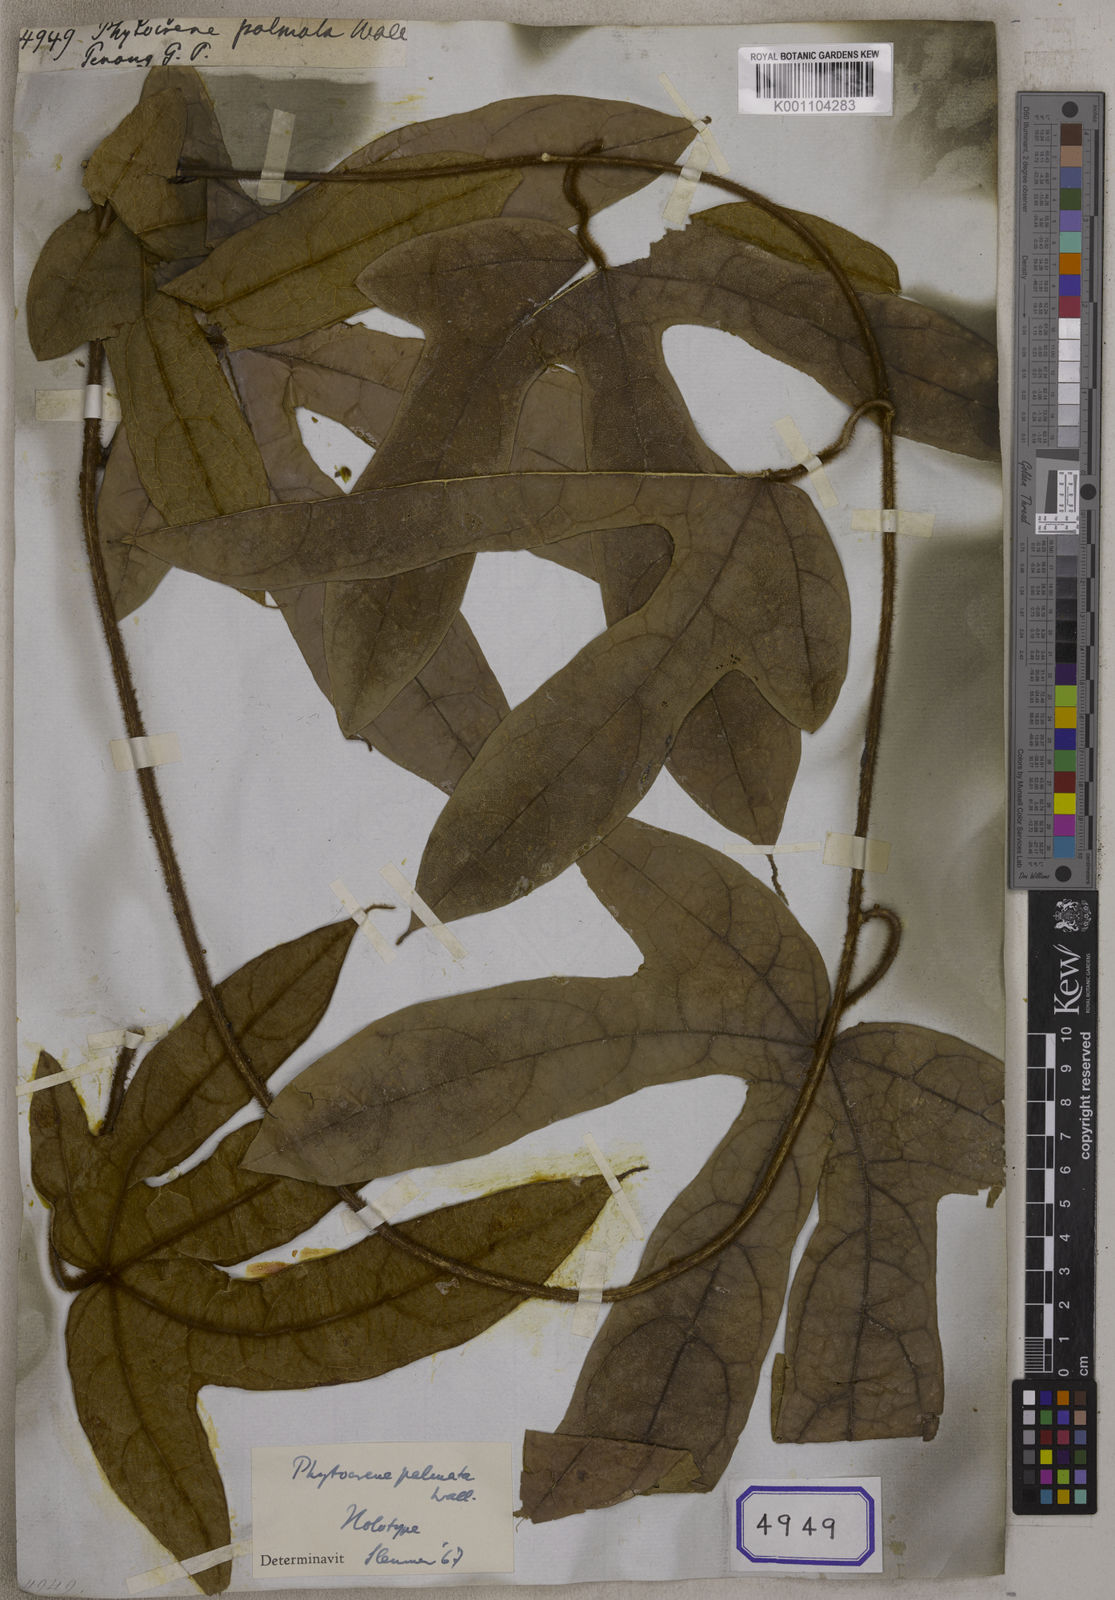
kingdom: Plantae
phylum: Tracheophyta
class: Magnoliopsida
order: Icacinales
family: Icacinaceae
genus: Phytocrene
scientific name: Phytocrene palmata
